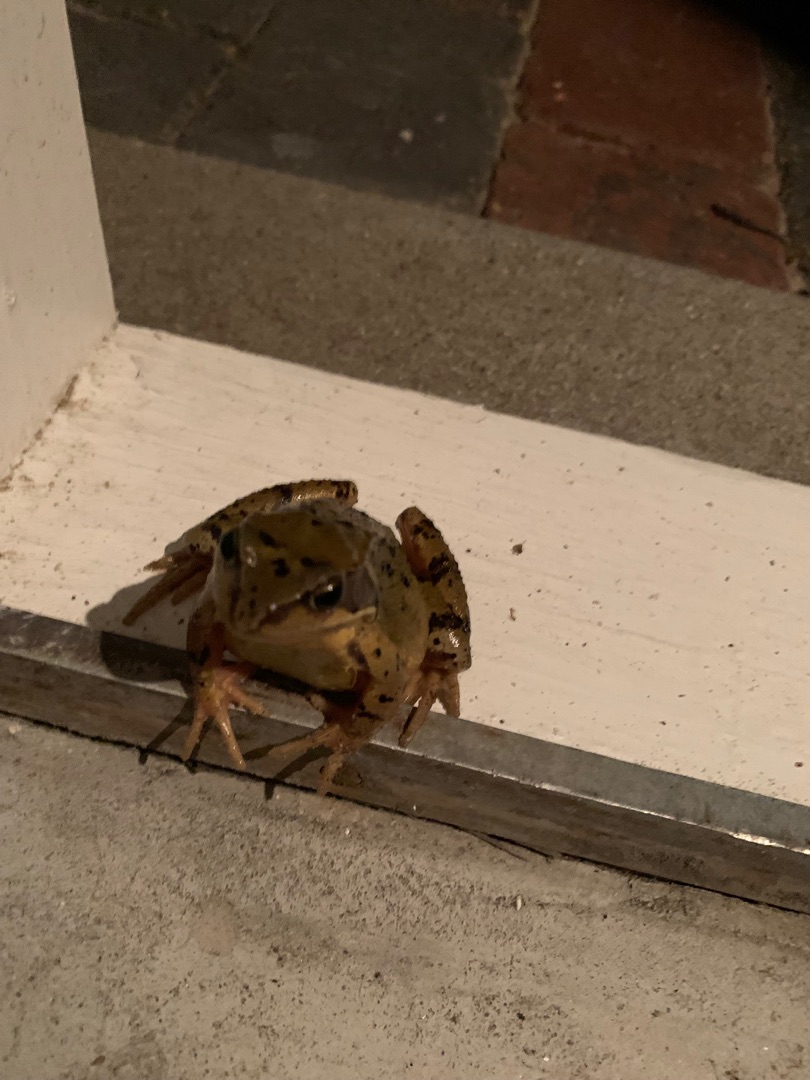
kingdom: Animalia
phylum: Chordata
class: Amphibia
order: Anura
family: Ranidae
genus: Rana
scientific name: Rana temporaria
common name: Butsnudet frø
